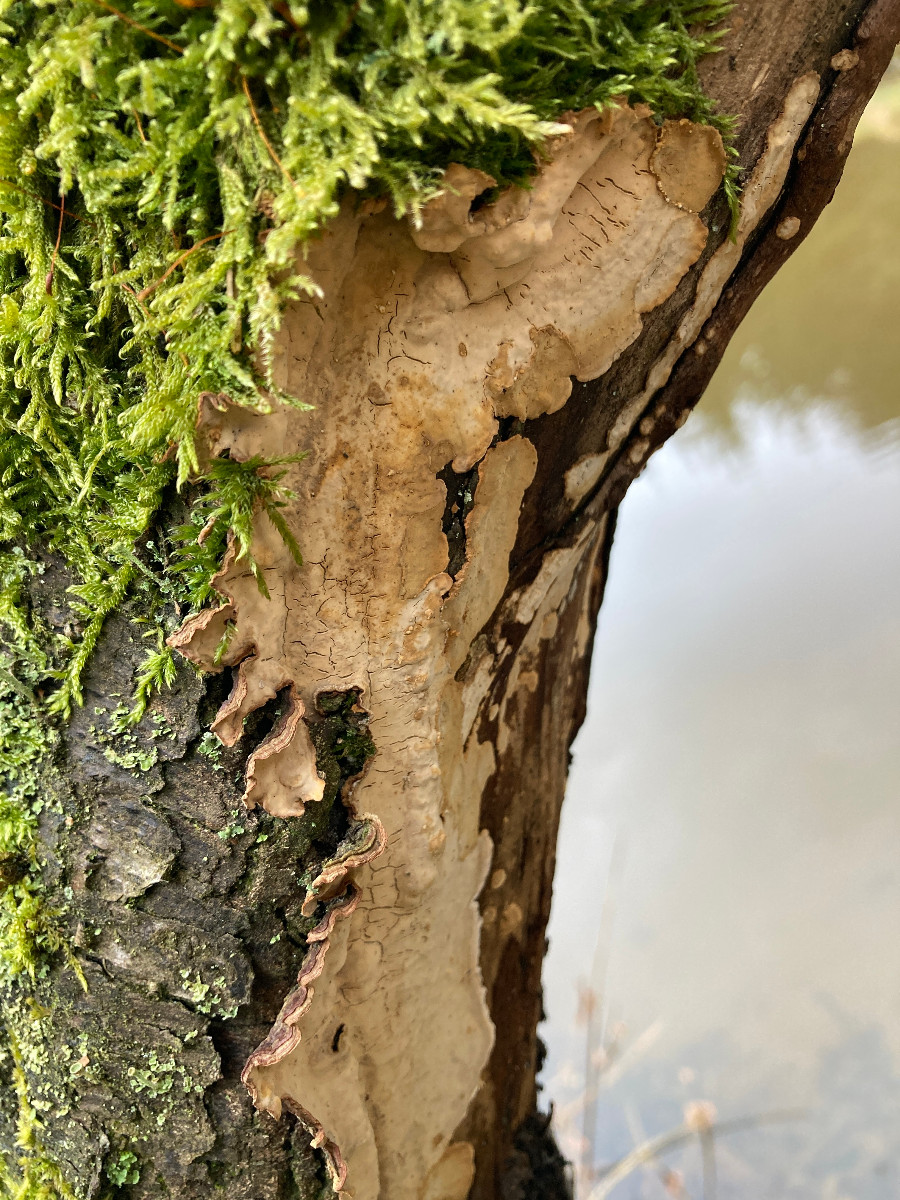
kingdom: Fungi
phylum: Basidiomycota
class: Agaricomycetes
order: Russulales
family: Stereaceae
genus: Stereum
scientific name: Stereum rugosum
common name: rynket lædersvamp
